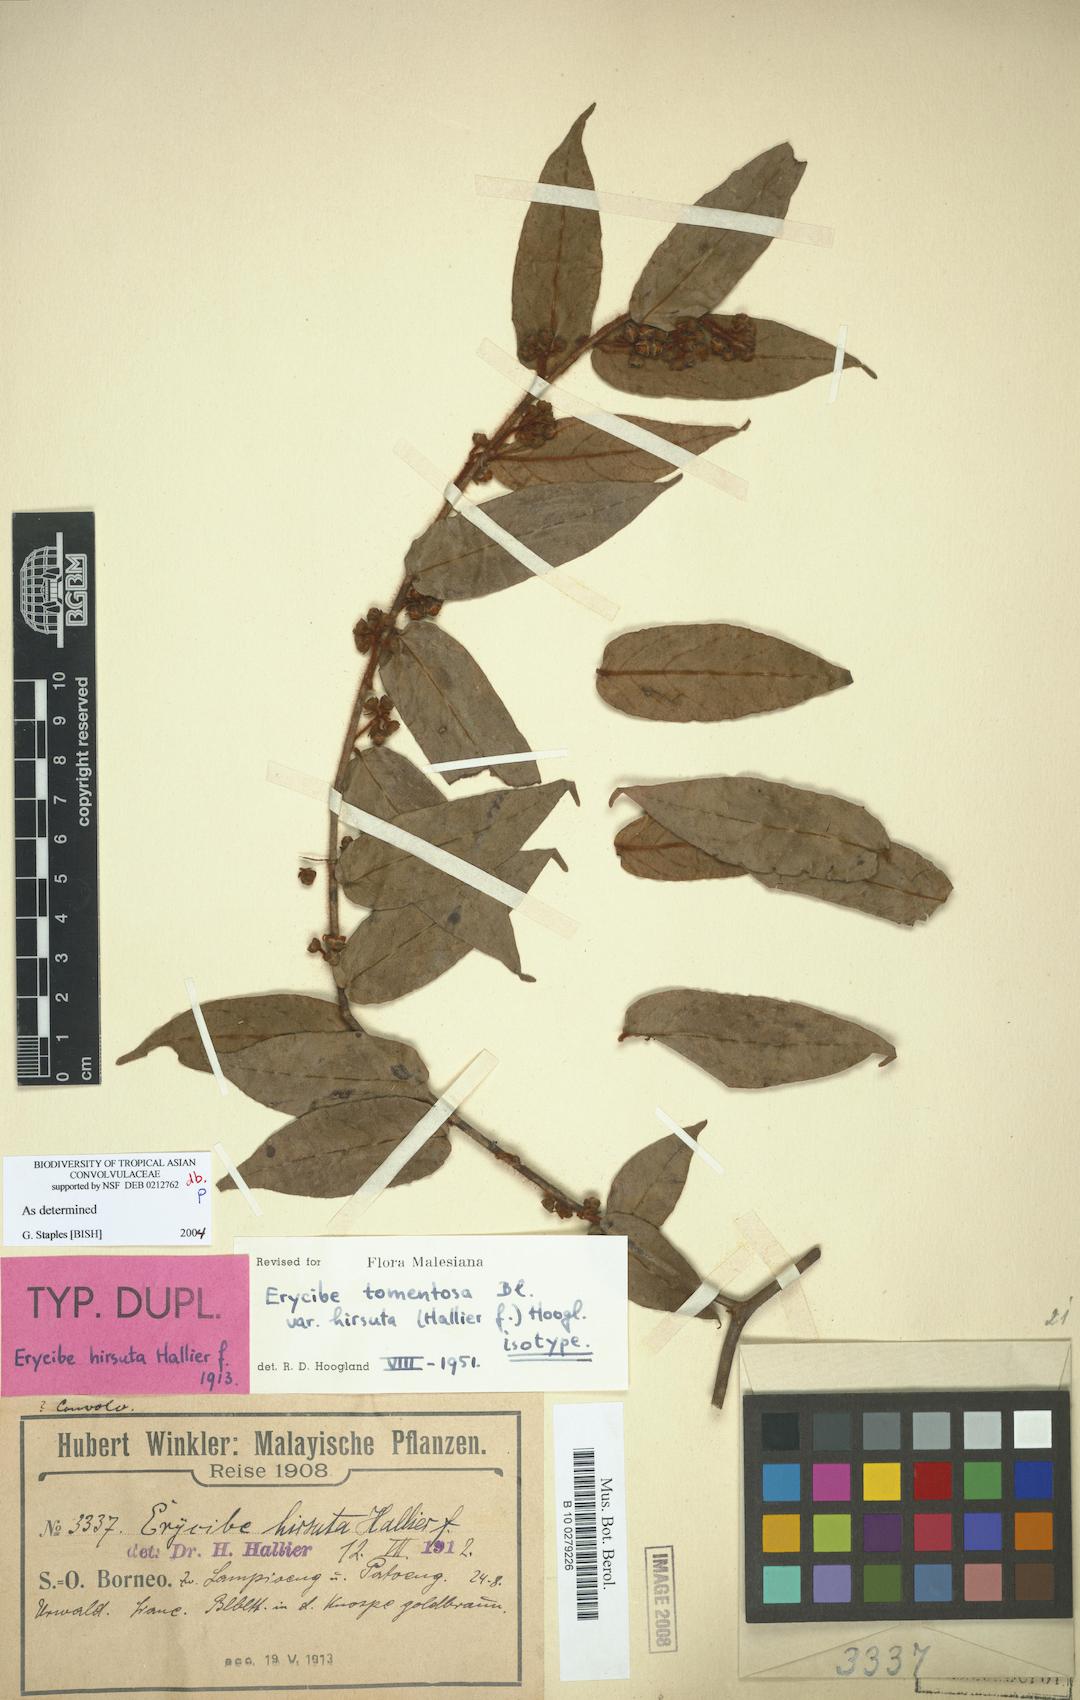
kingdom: Plantae
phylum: Tracheophyta
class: Magnoliopsida
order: Solanales
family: Convolvulaceae
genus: Erycibe
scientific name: Erycibe tomentosa
